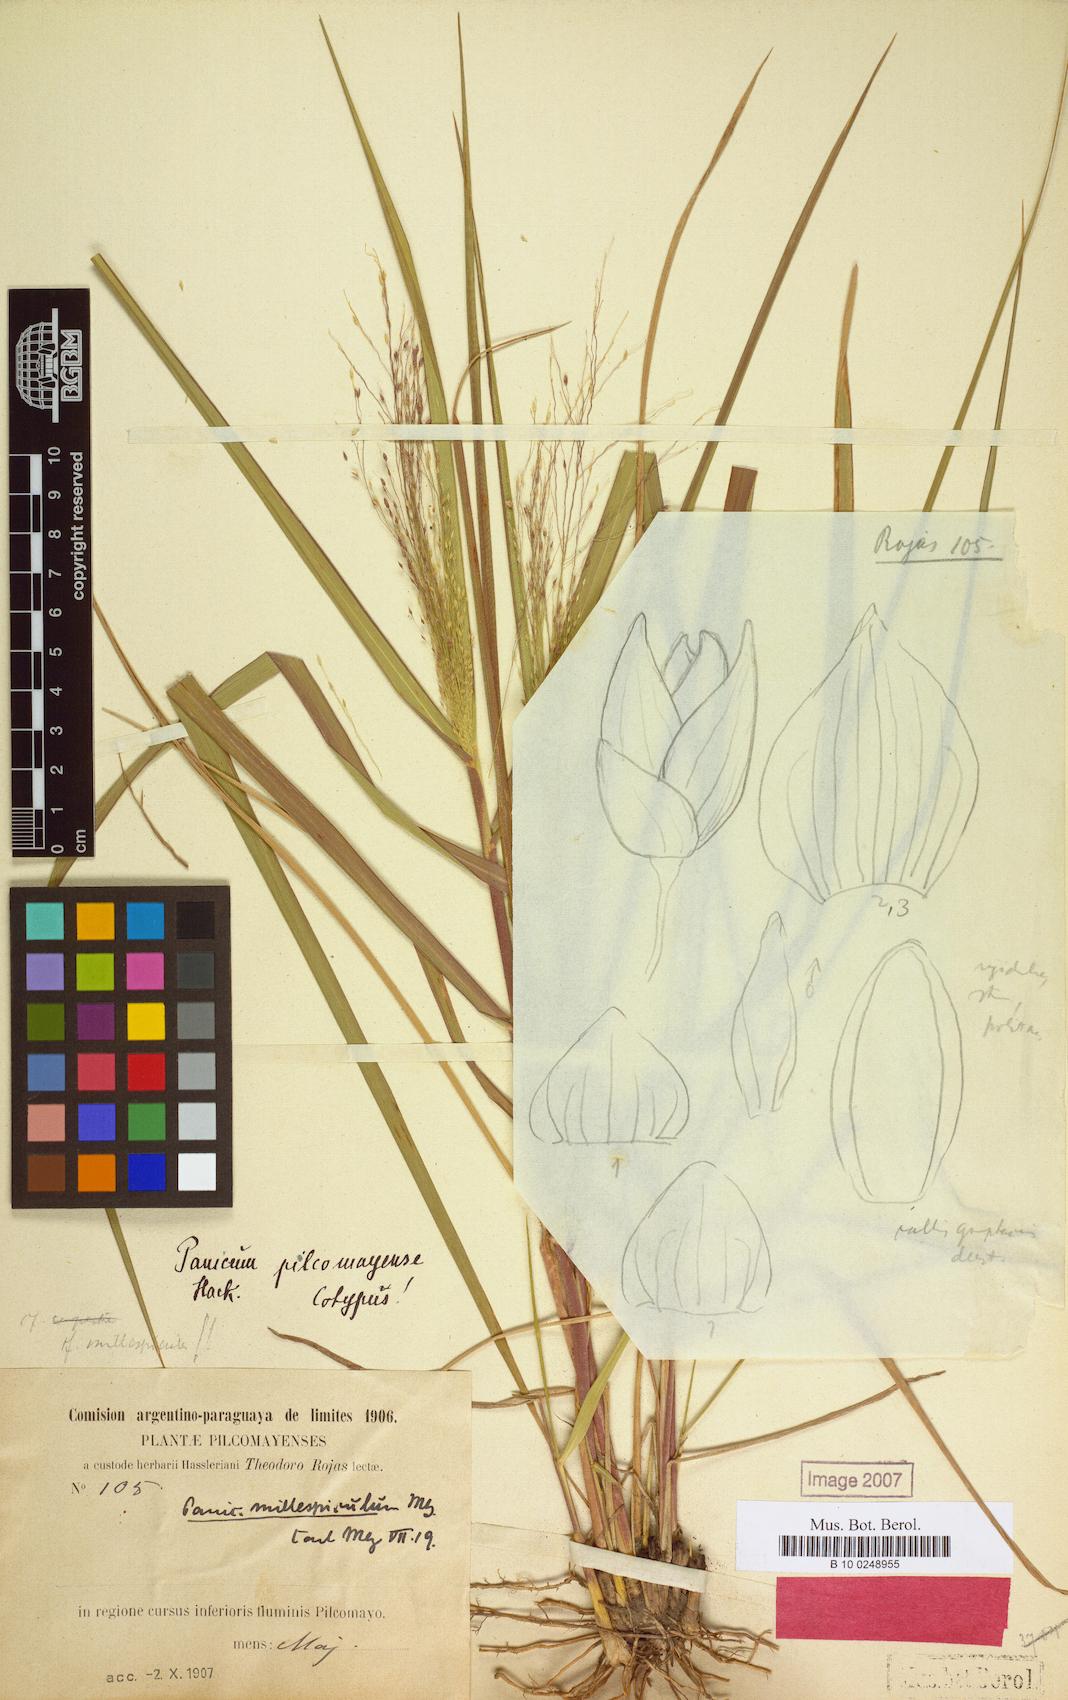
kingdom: Plantae
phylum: Tracheophyta
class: Liliopsida
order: Poales
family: Poaceae
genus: Panicum
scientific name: Panicum
